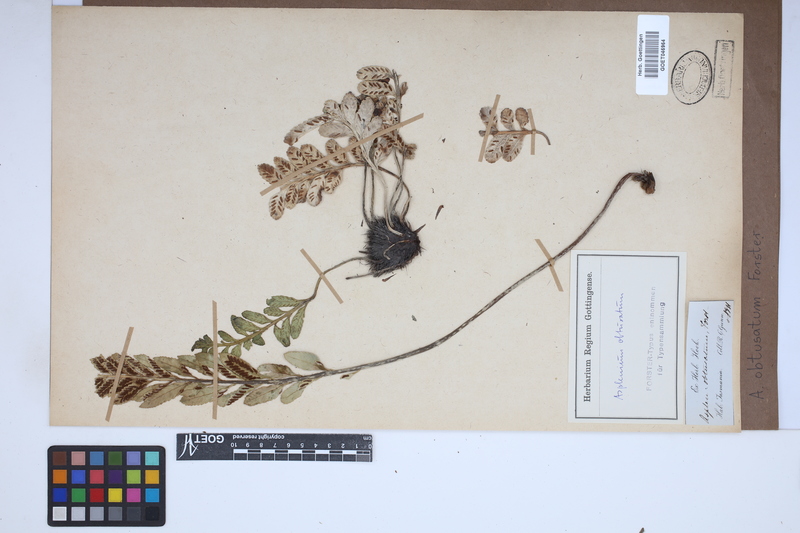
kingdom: Plantae
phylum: Tracheophyta
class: Polypodiopsida
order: Polypodiales
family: Aspleniaceae
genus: Asplenium
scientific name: Asplenium obtusatum
